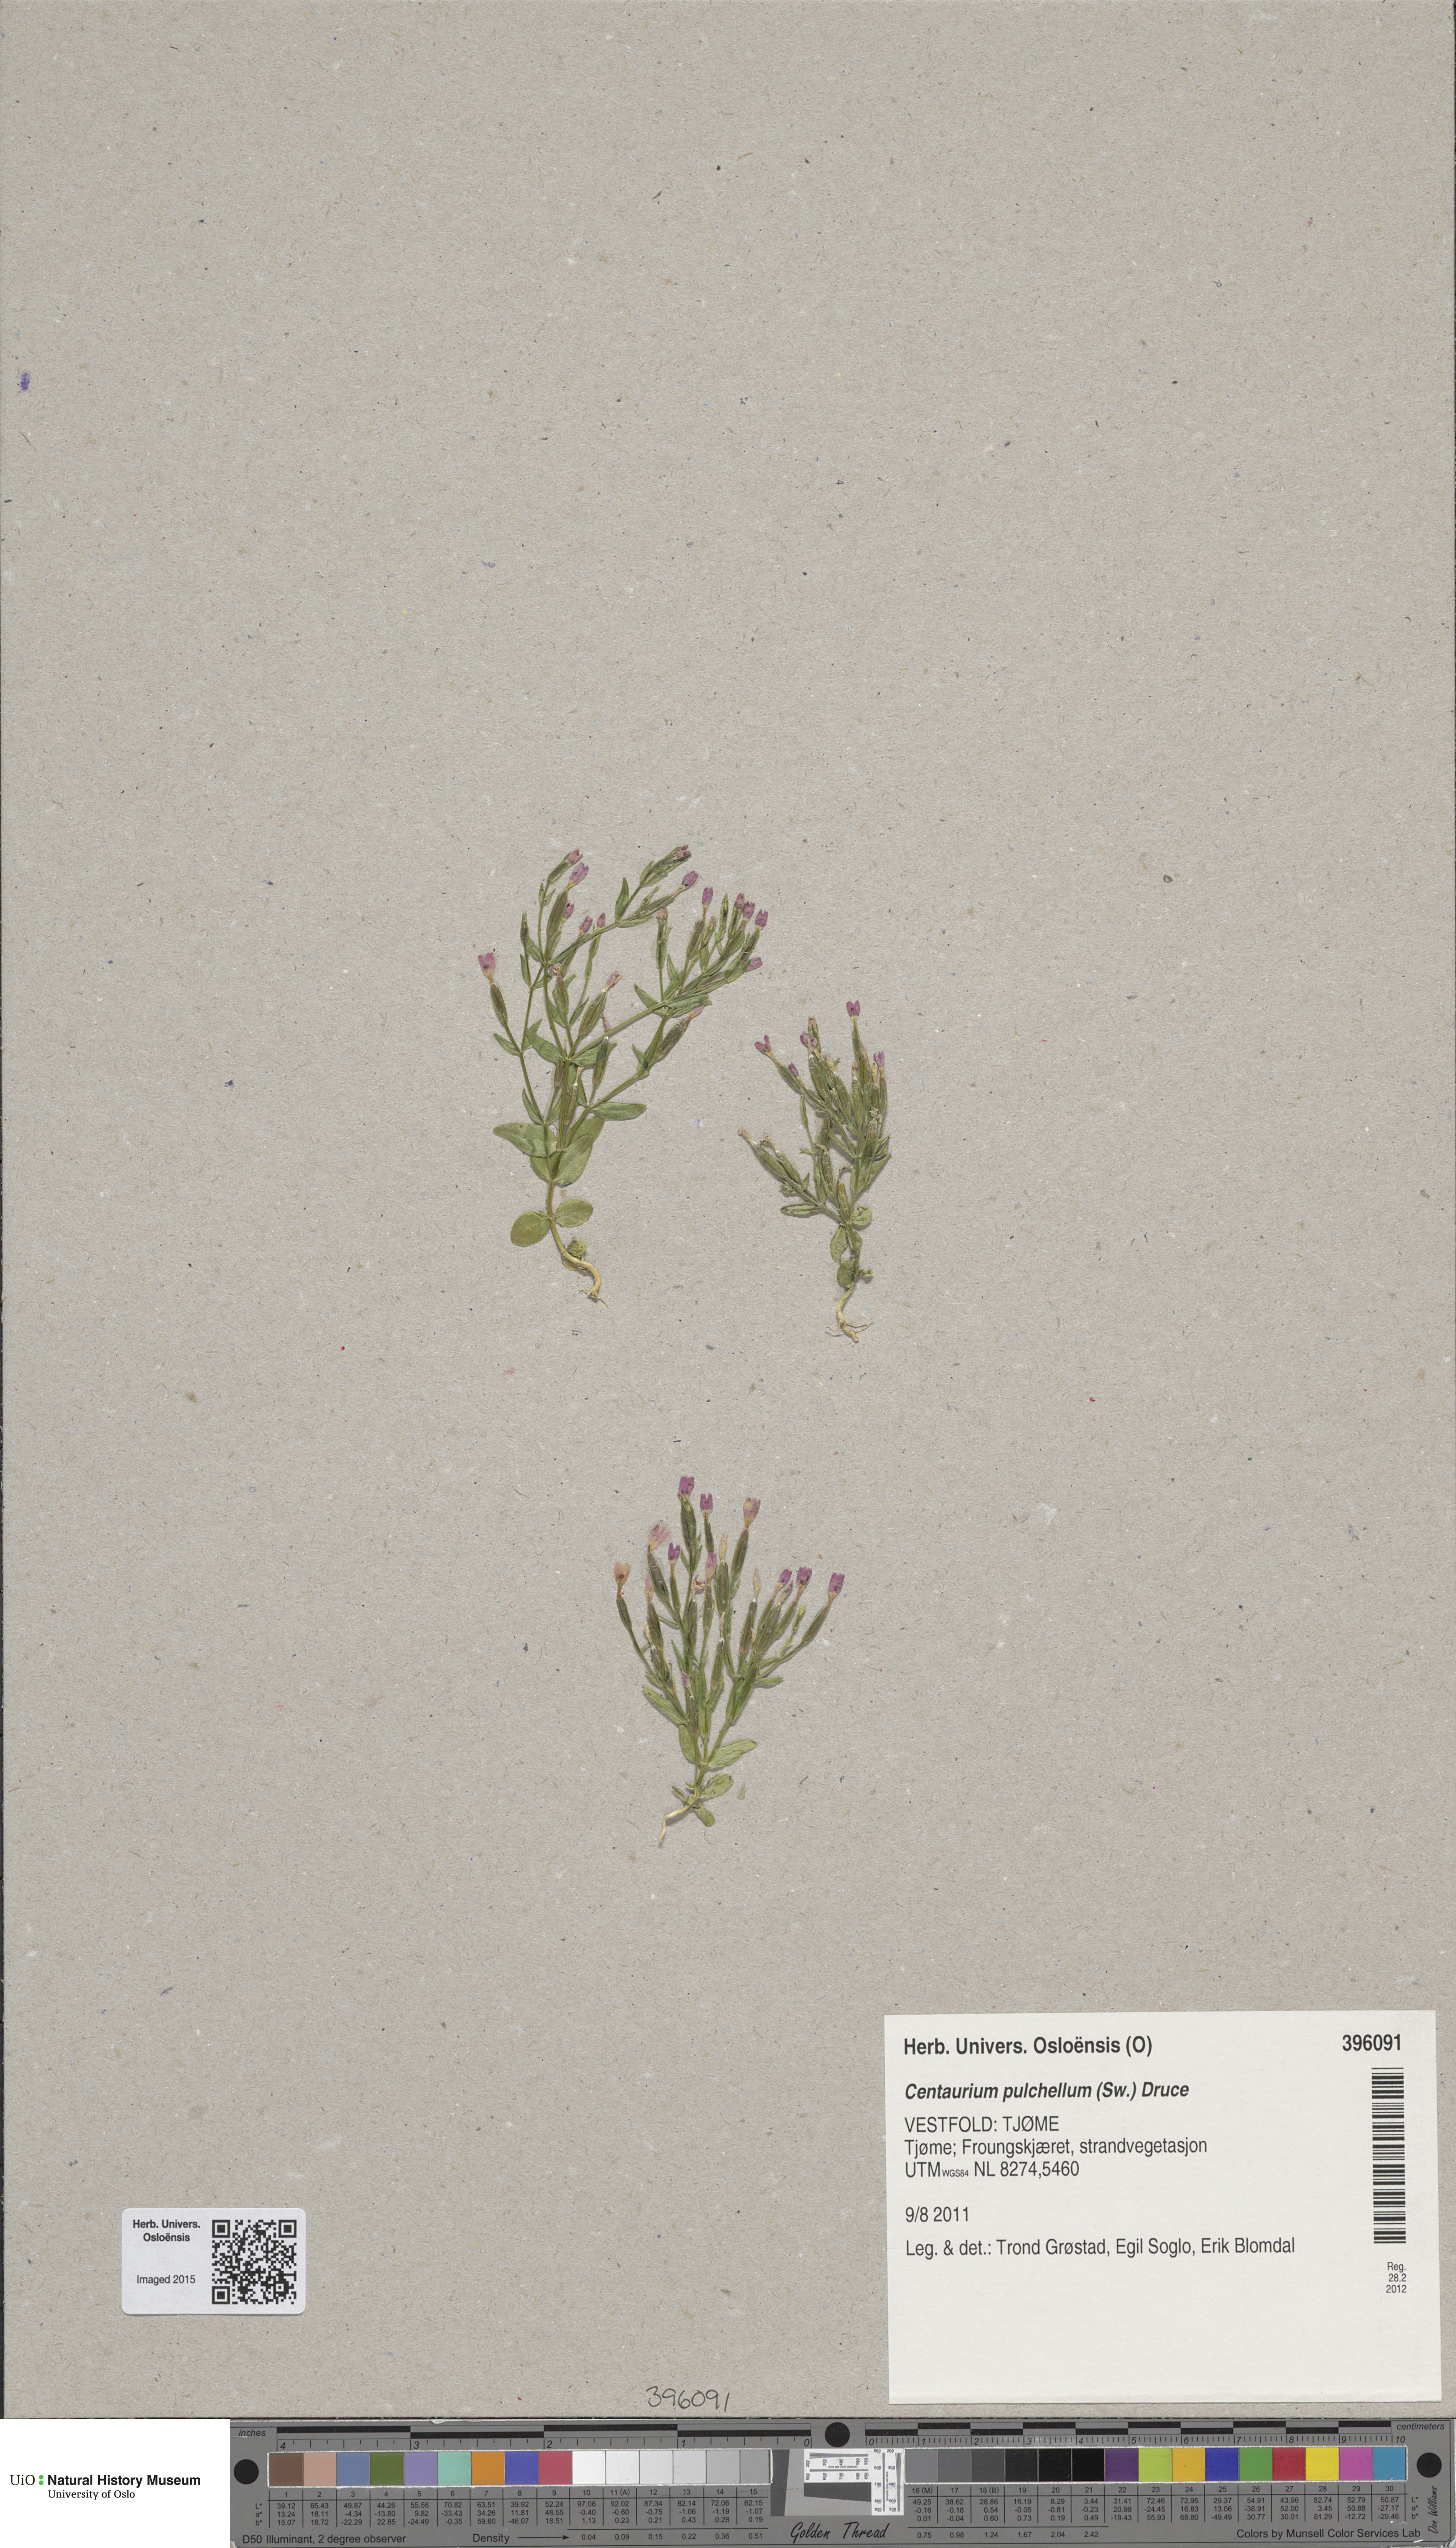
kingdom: Plantae
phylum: Tracheophyta
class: Magnoliopsida
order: Gentianales
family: Gentianaceae
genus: Centaurium
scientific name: Centaurium pulchellum
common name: Lesser centaury
